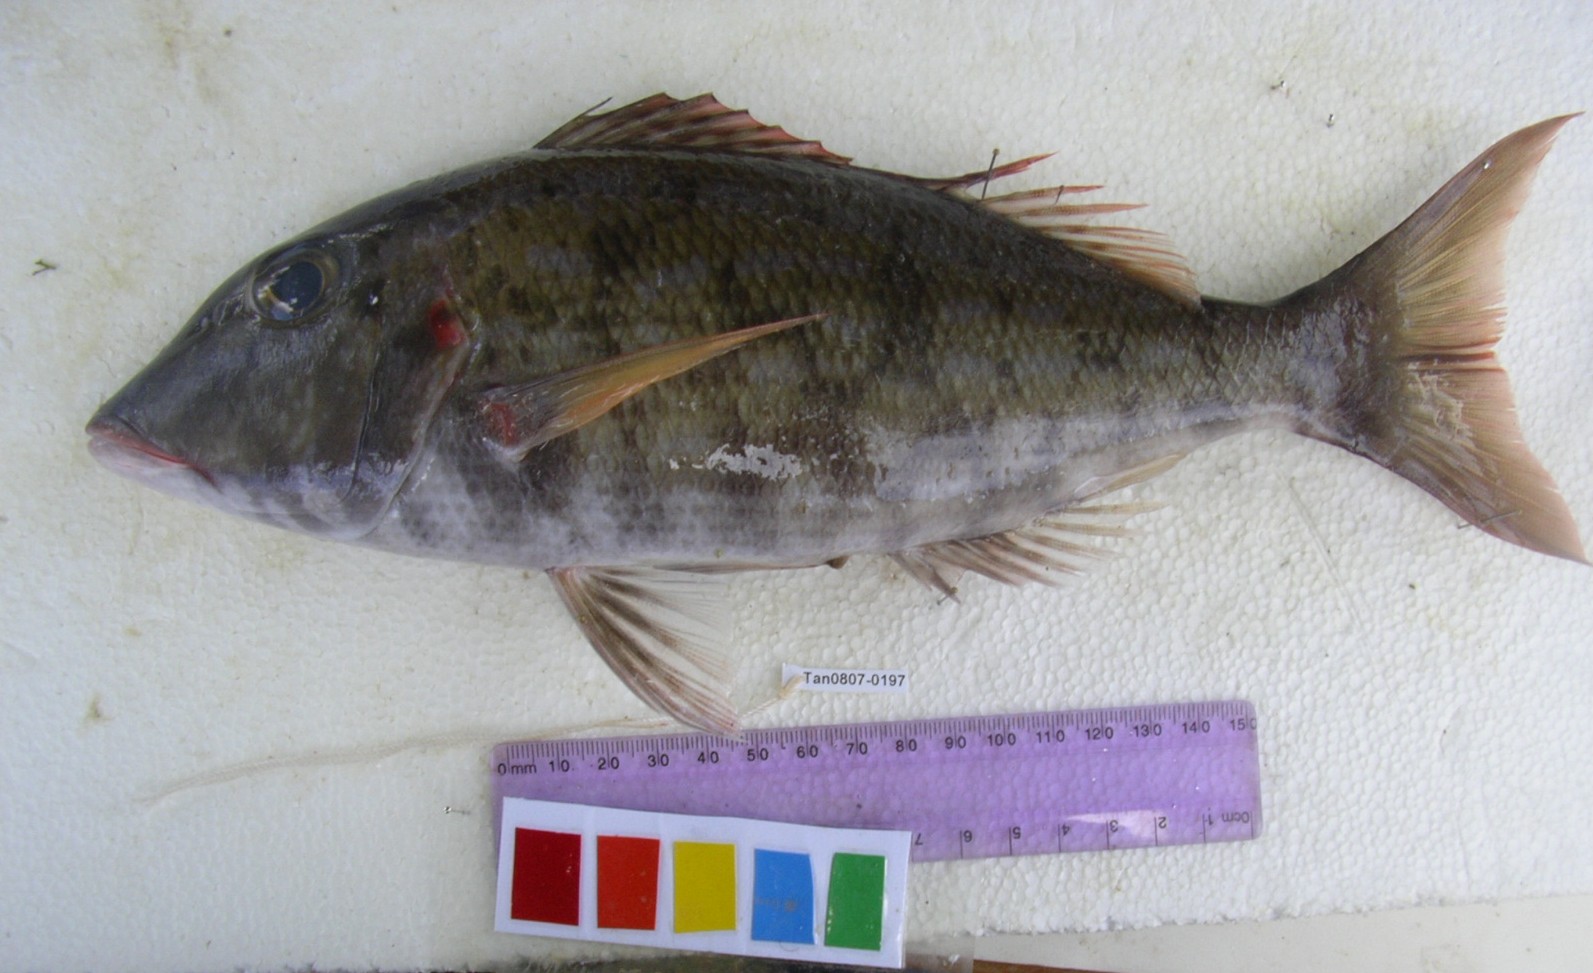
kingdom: Animalia
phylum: Chordata
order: Perciformes
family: Lethrinidae
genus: Lethrinus
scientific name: Lethrinus rubrioperculatus
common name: Spotcheek emperor
